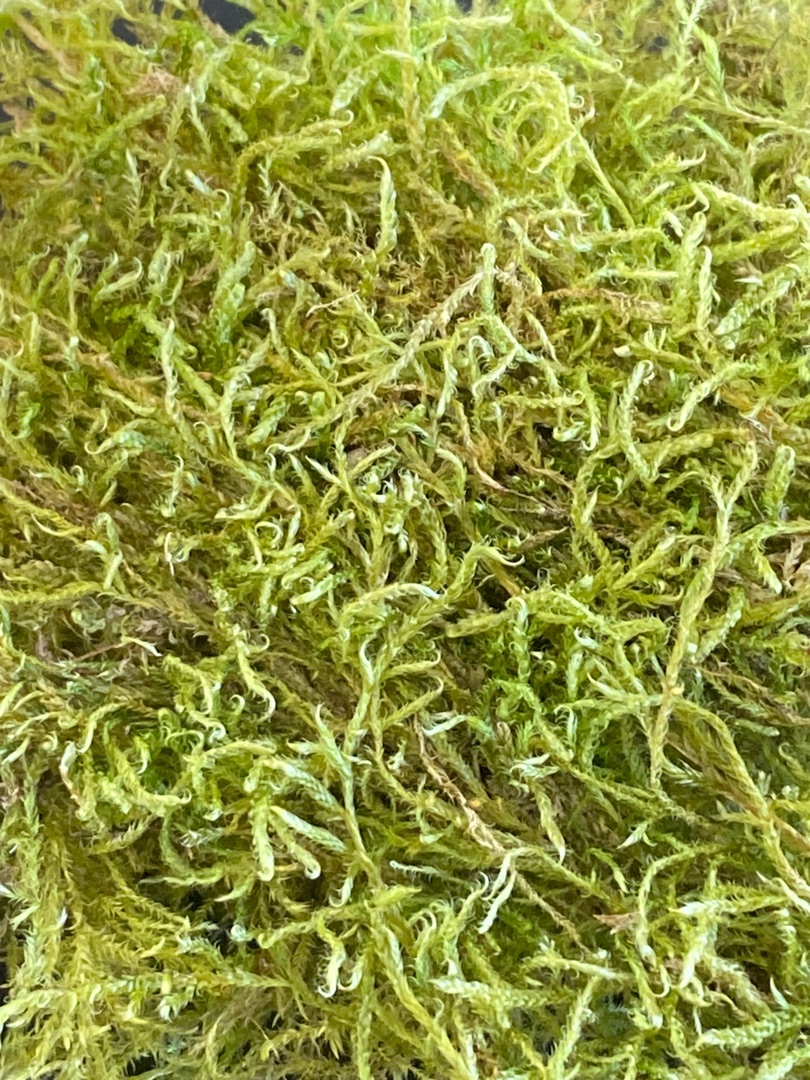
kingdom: Plantae
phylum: Bryophyta
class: Bryopsida
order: Hypnales
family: Hypnaceae
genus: Hypnum
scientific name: Hypnum
